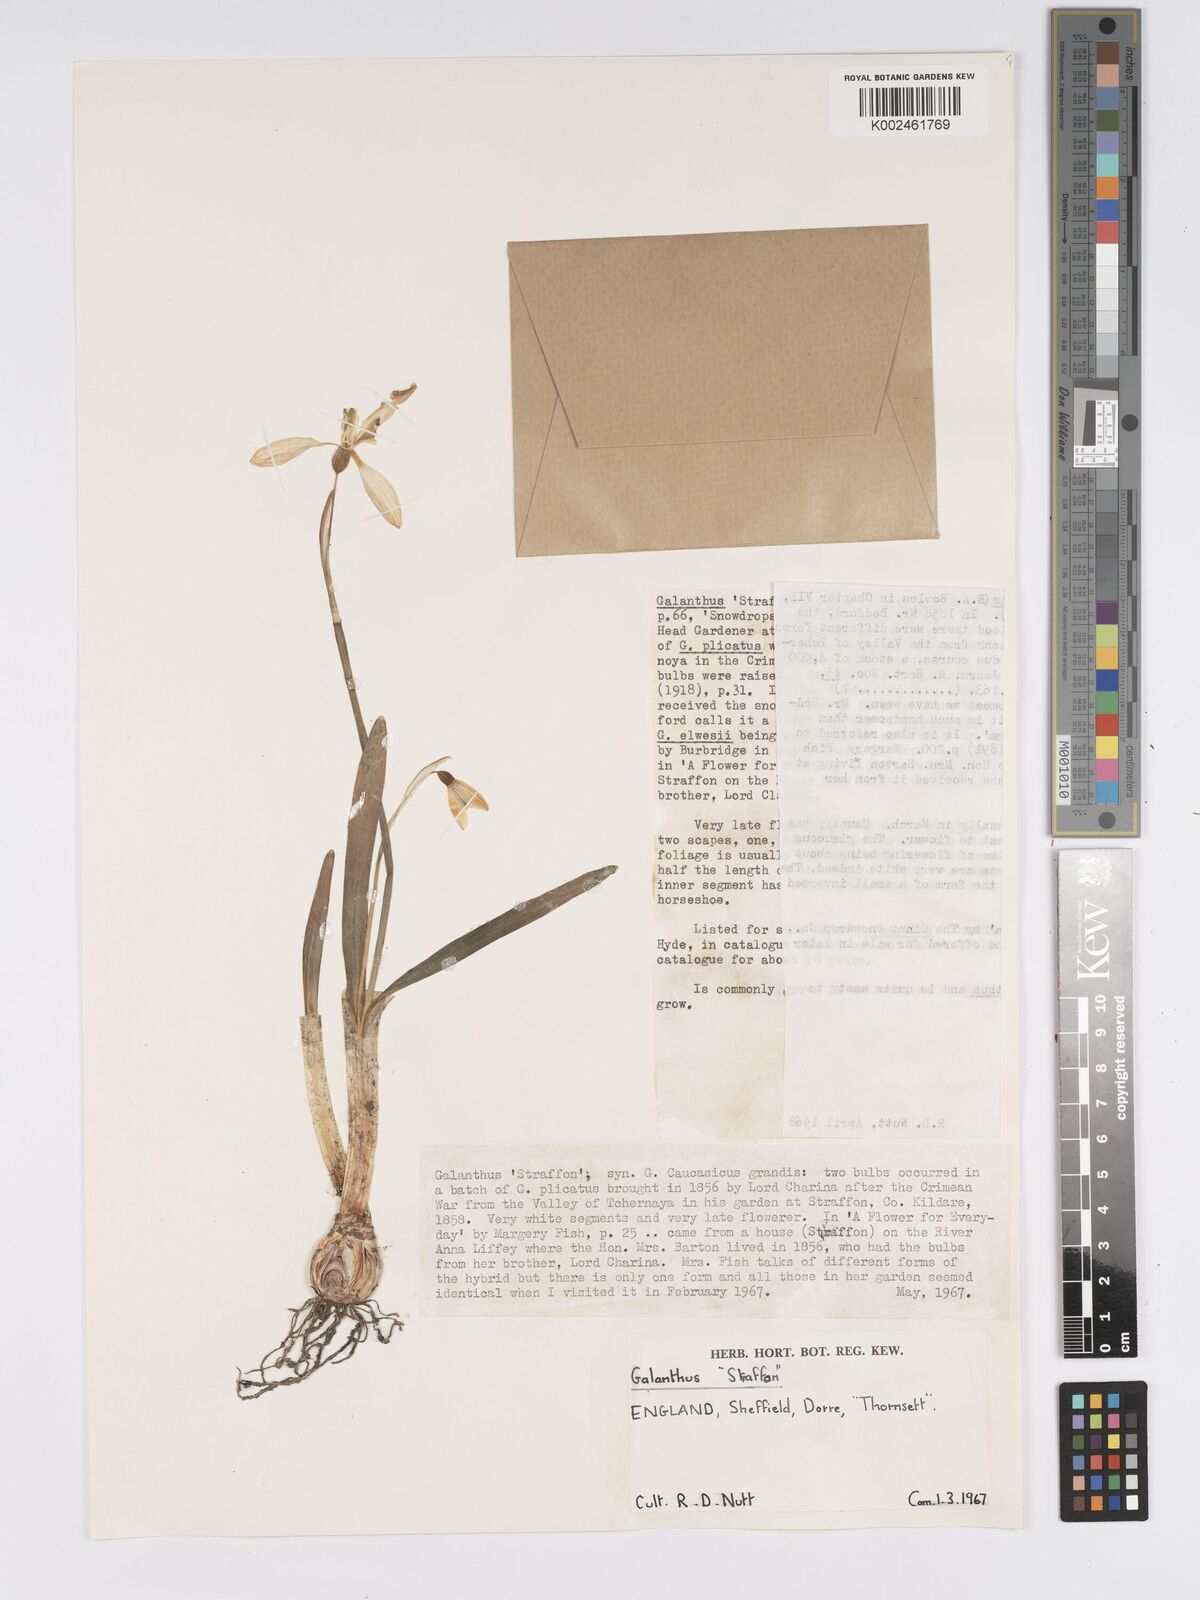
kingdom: Plantae
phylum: Tracheophyta
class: Liliopsida
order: Asparagales
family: Amaryllidaceae
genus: Galanthus
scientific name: Galanthus
